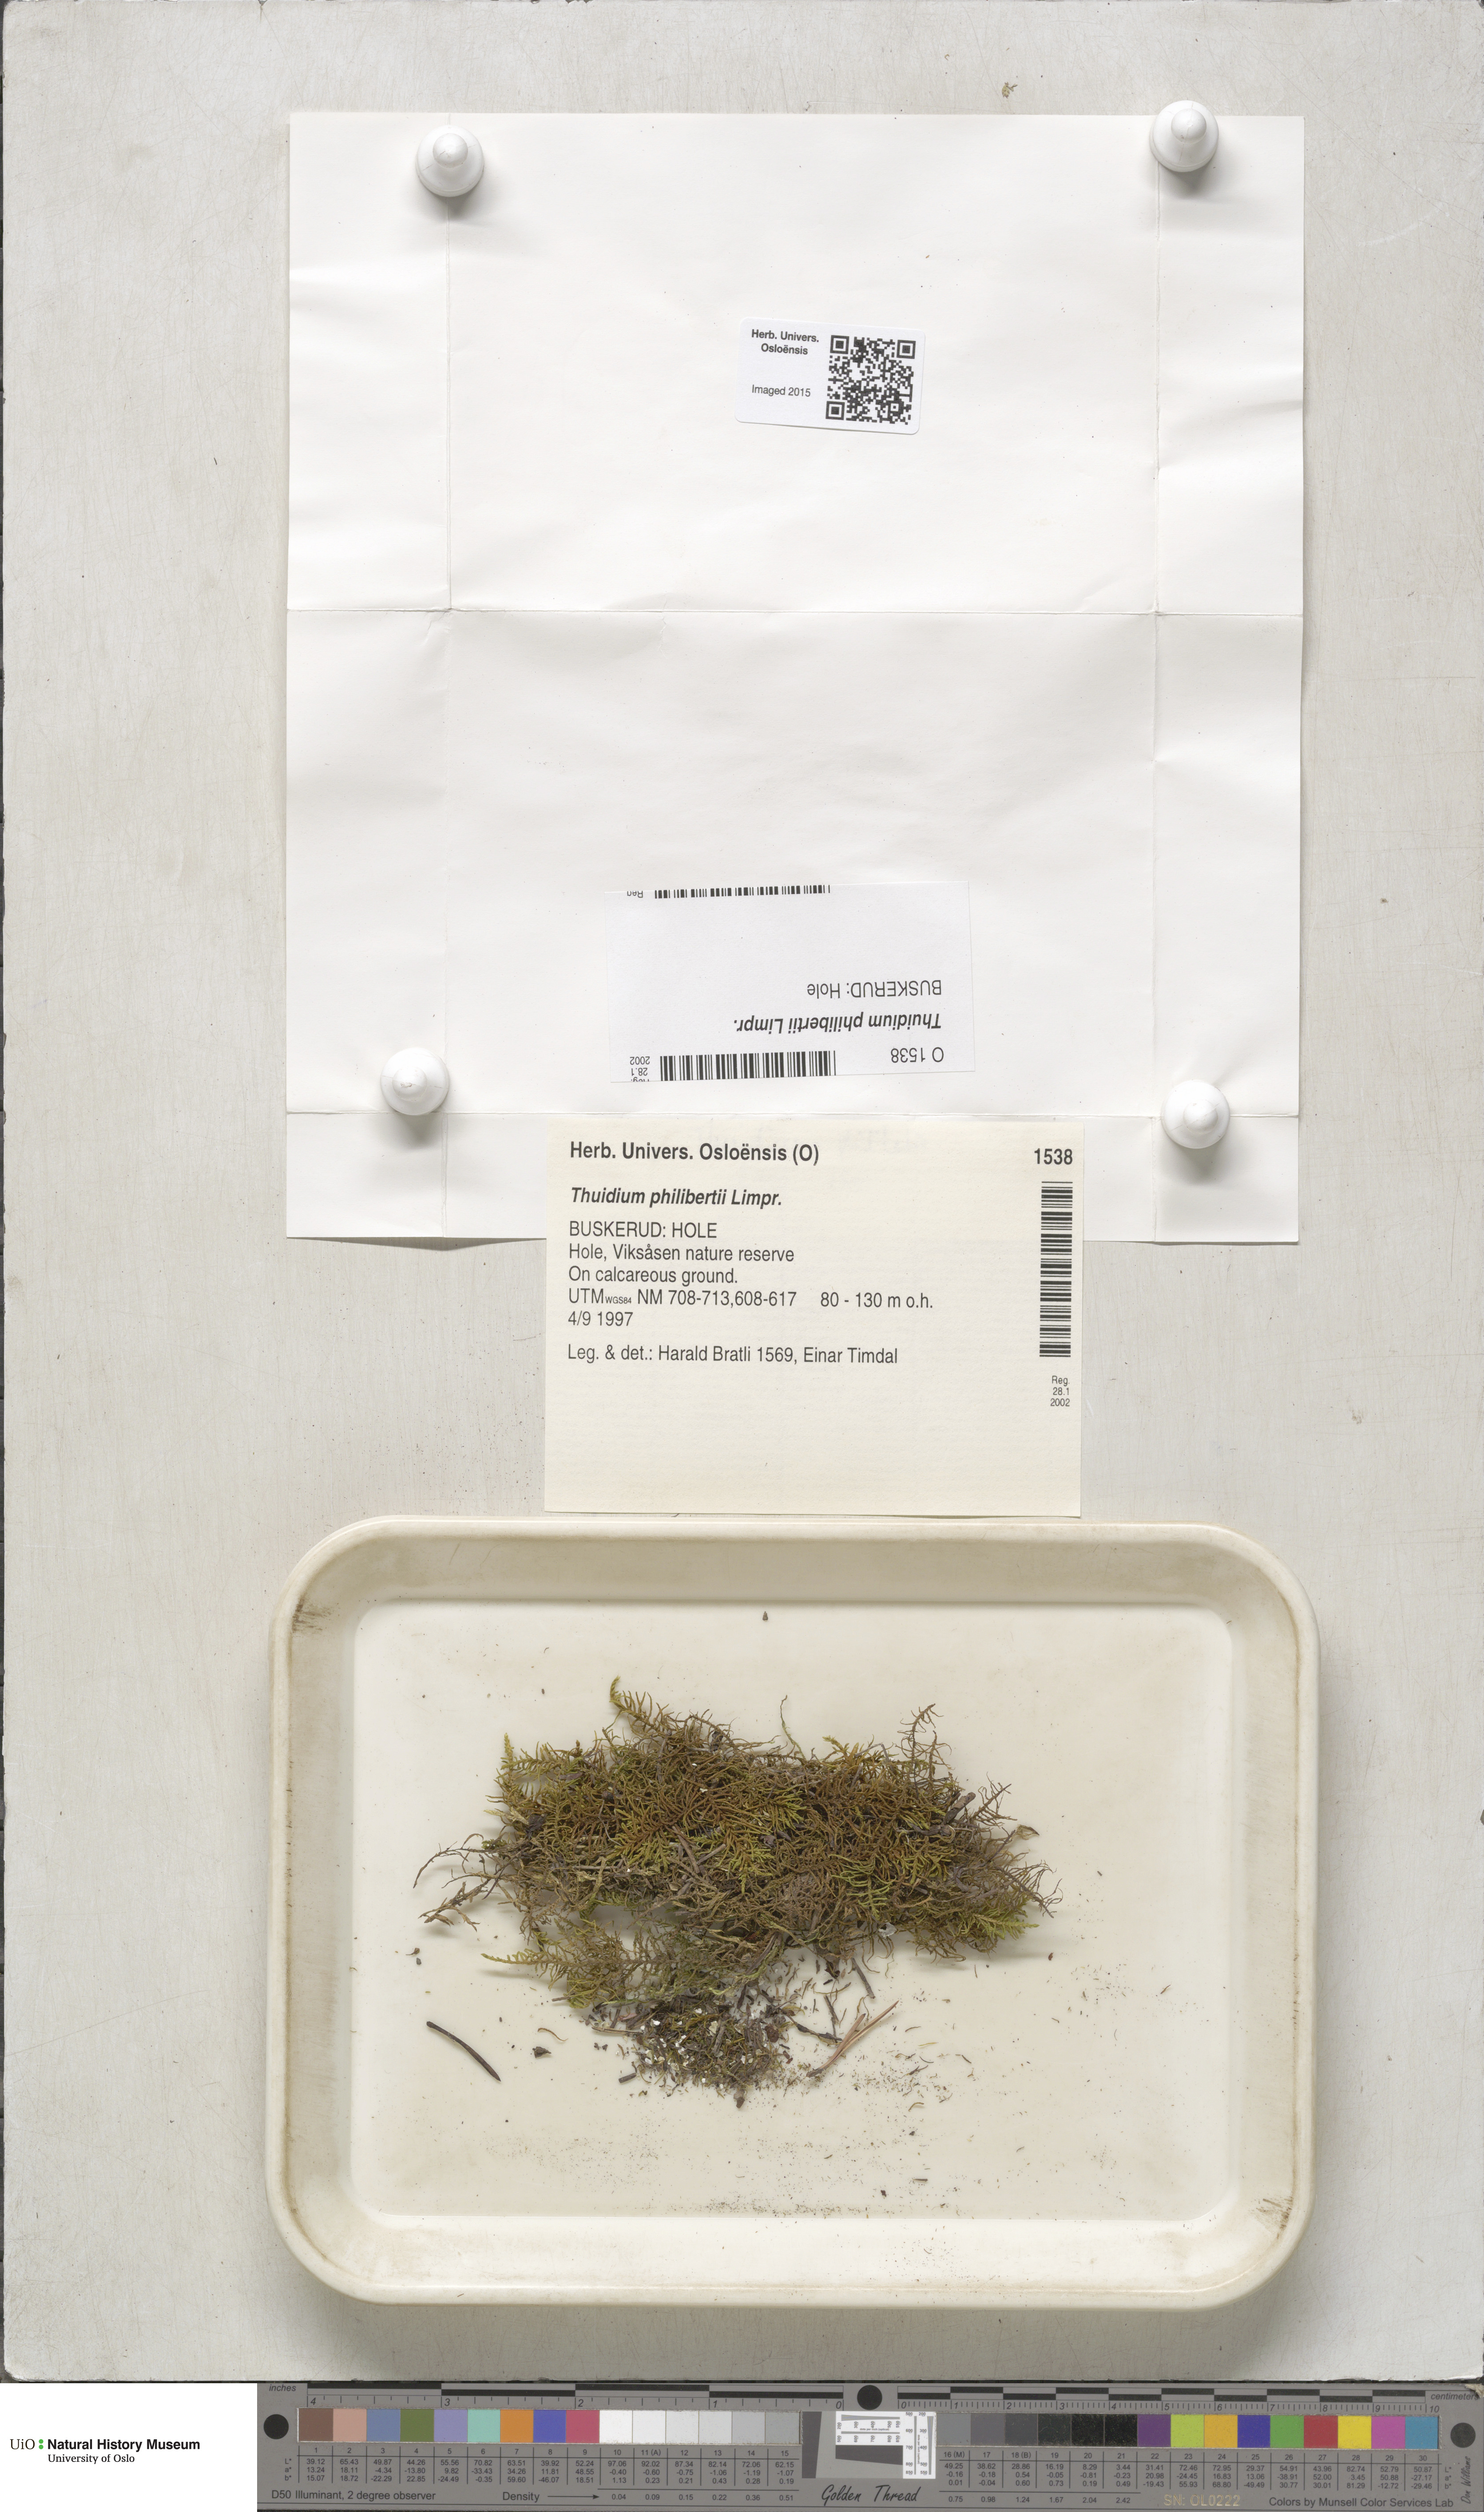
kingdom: Plantae
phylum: Bryophyta
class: Bryopsida
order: Hypnales
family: Thuidiaceae
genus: Thuidium
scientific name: Thuidium assimile
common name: Philibert's fern moss
